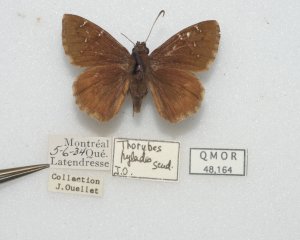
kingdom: Animalia
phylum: Arthropoda
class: Insecta
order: Lepidoptera
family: Hesperiidae
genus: Autochton
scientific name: Autochton
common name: Northern Cloudywing
